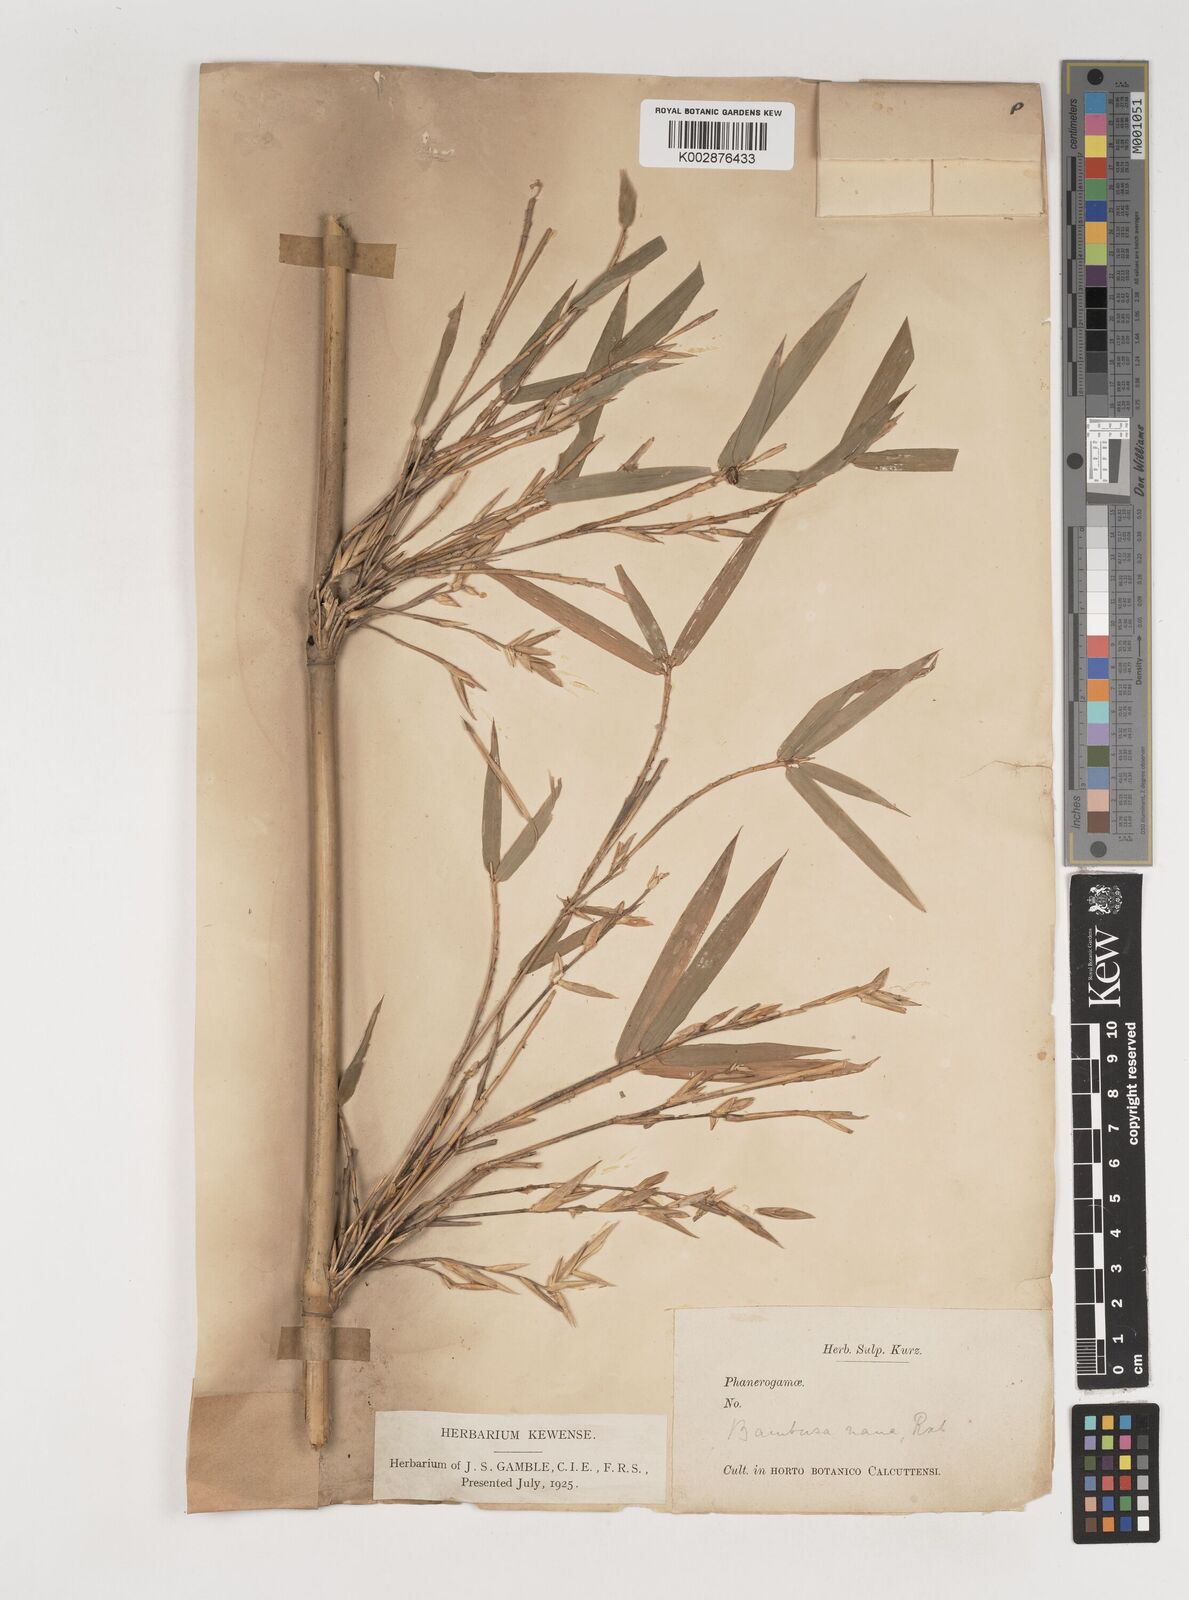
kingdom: Plantae
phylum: Tracheophyta
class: Liliopsida
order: Poales
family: Poaceae
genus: Bambusa
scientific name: Bambusa multiplex
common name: Hedge bamboo
